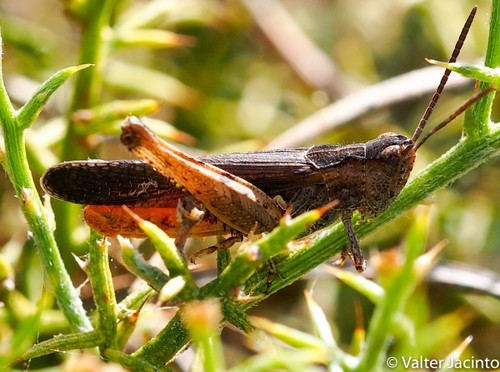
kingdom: Animalia
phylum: Arthropoda
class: Insecta
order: Orthoptera
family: Acrididae
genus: Omocestus
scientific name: Omocestus raymondi
